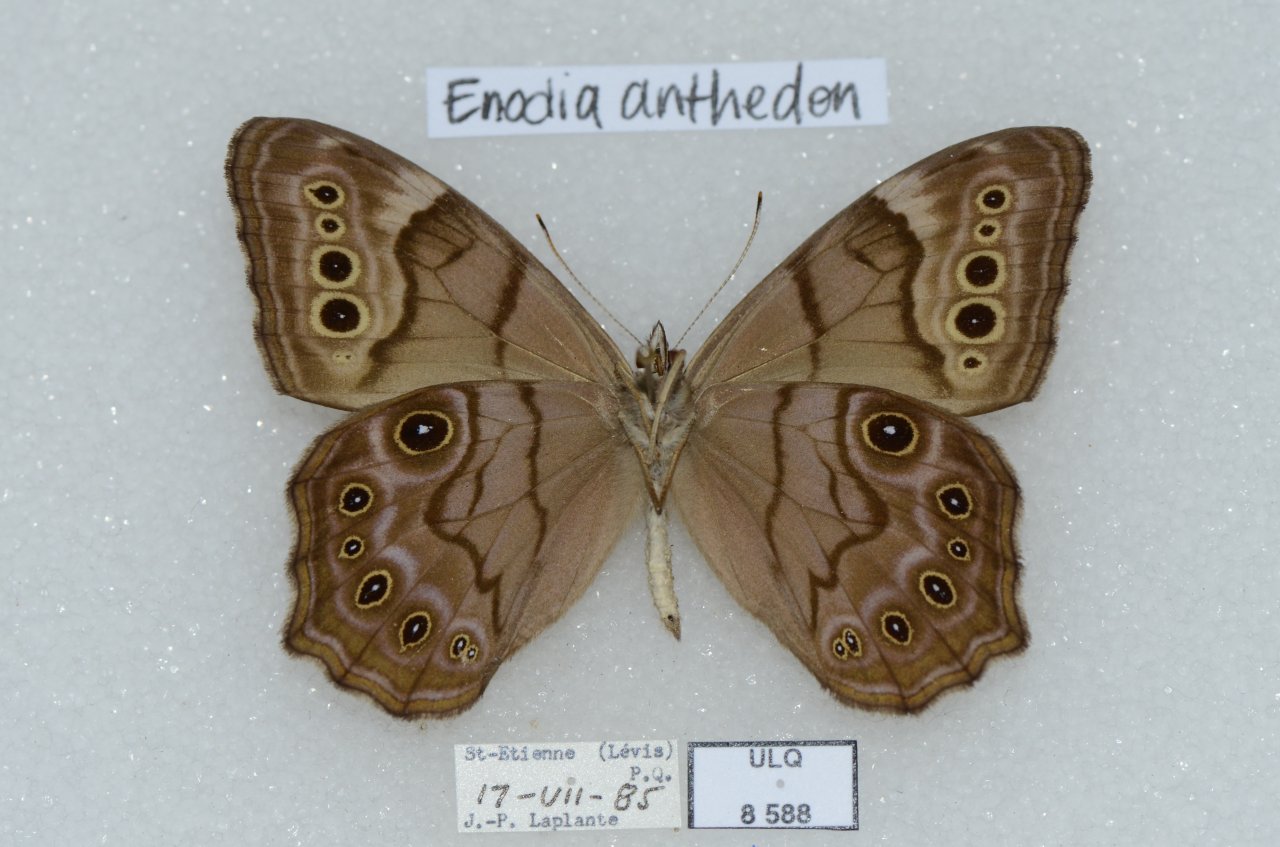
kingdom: Animalia
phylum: Arthropoda
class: Insecta
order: Lepidoptera
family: Nymphalidae
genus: Lethe
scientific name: Lethe anthedon
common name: Northern Pearly-Eye
